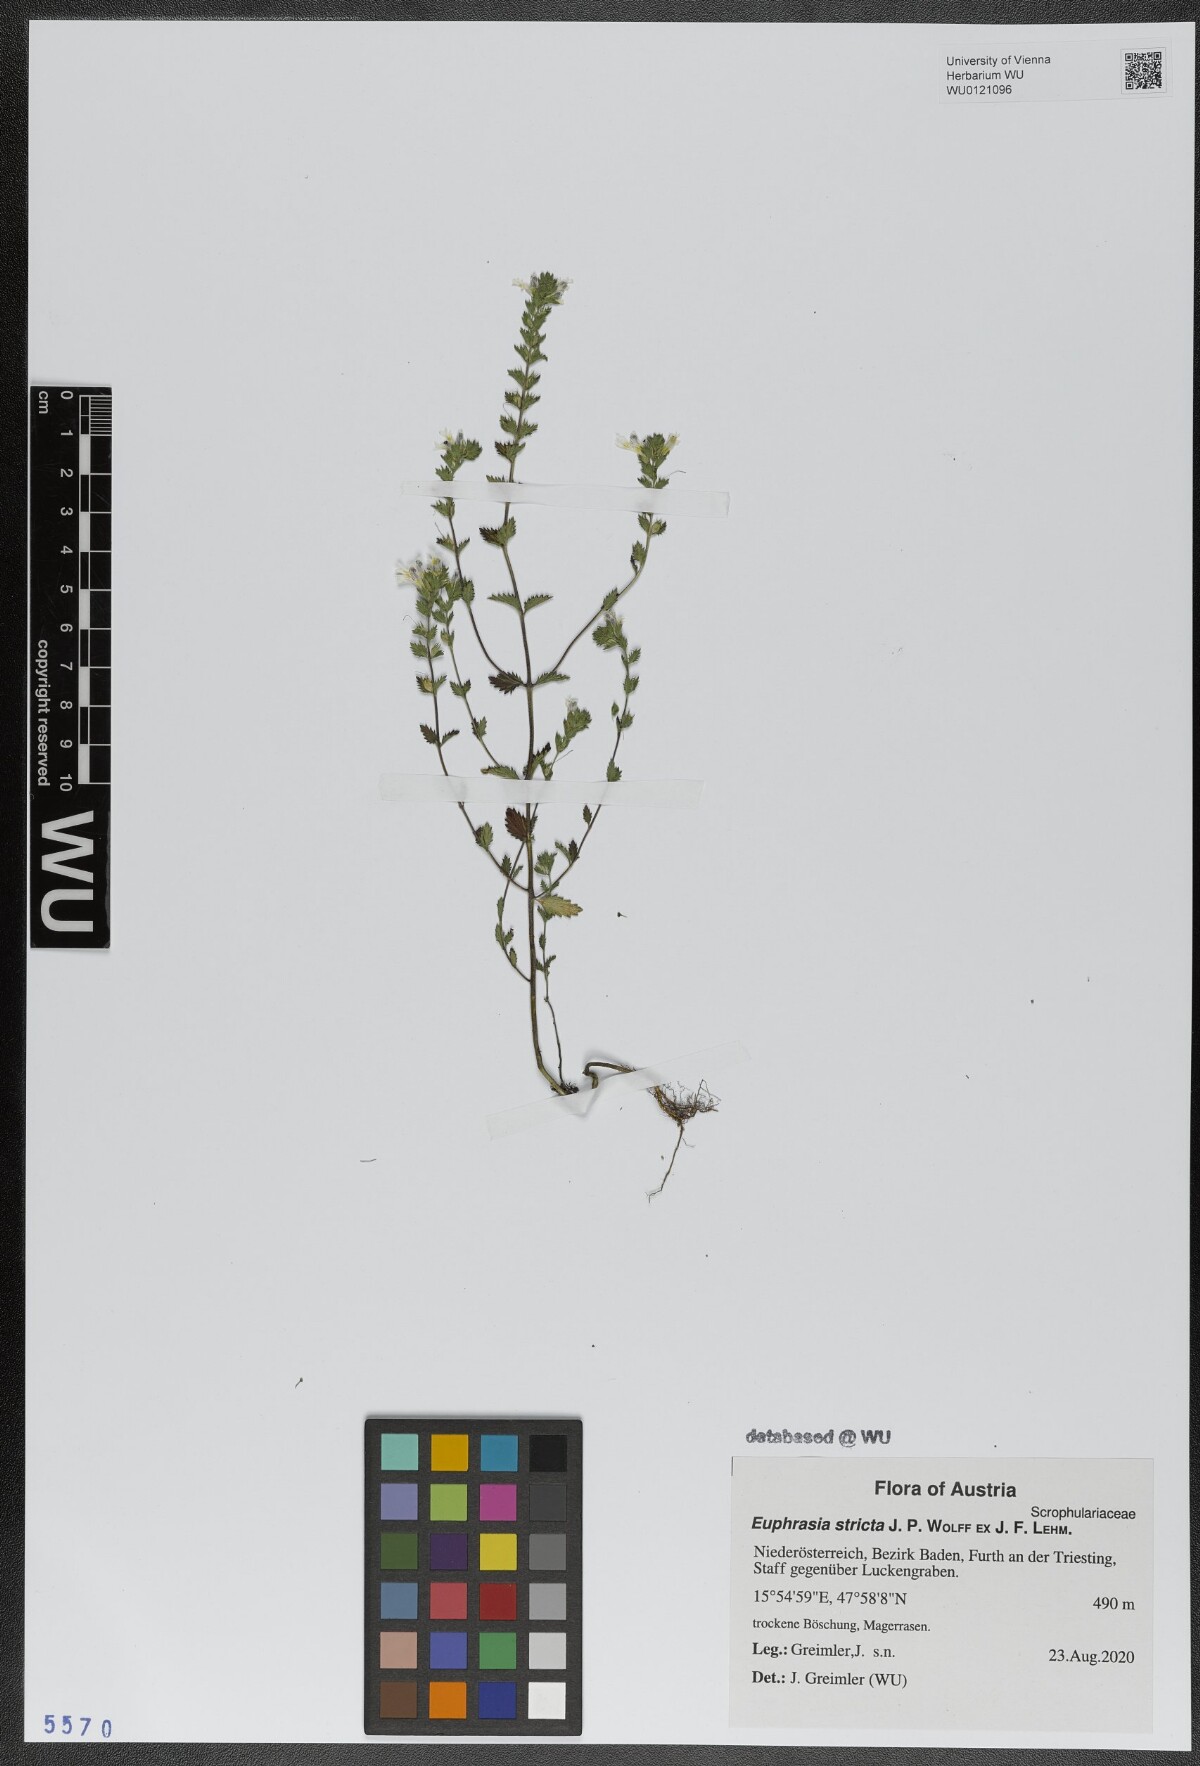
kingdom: Plantae
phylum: Tracheophyta
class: Magnoliopsida
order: Lamiales
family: Orobanchaceae
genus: Euphrasia
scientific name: Euphrasia stricta
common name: Drug eyebright
